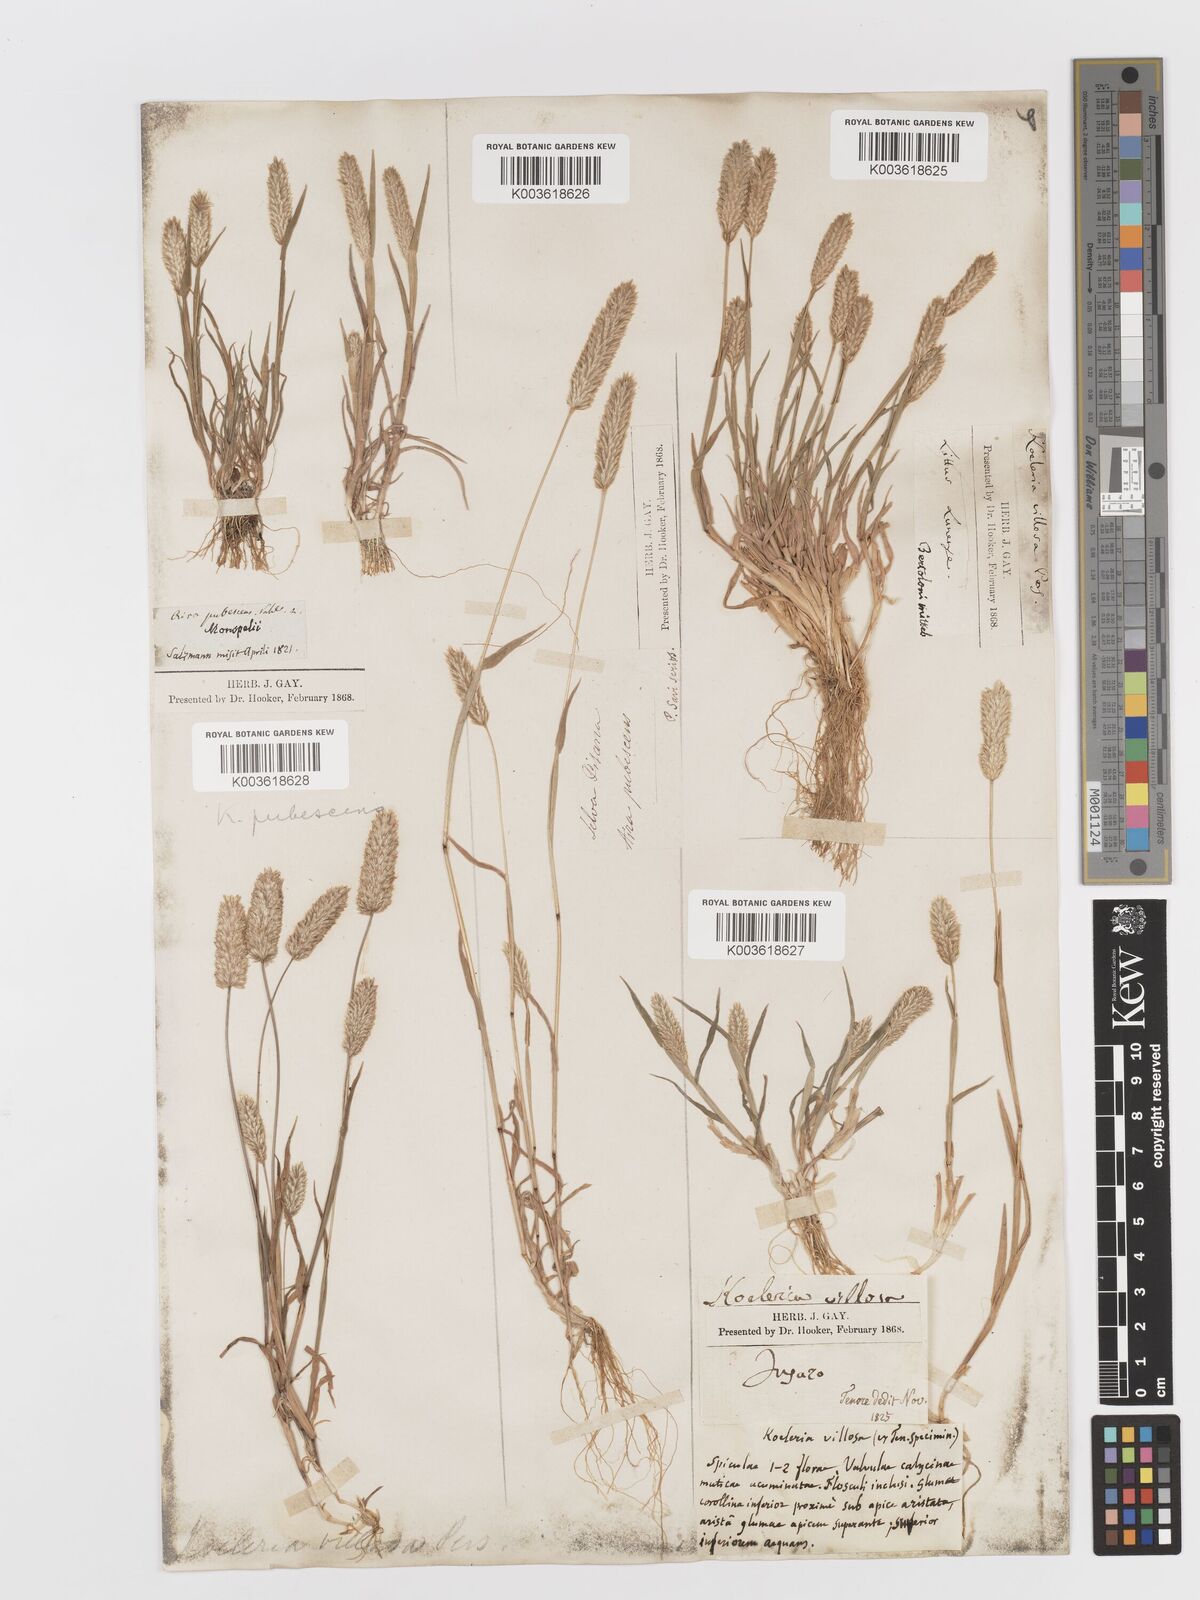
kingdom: Plantae
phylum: Tracheophyta
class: Liliopsida
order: Poales
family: Poaceae
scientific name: Poaceae
